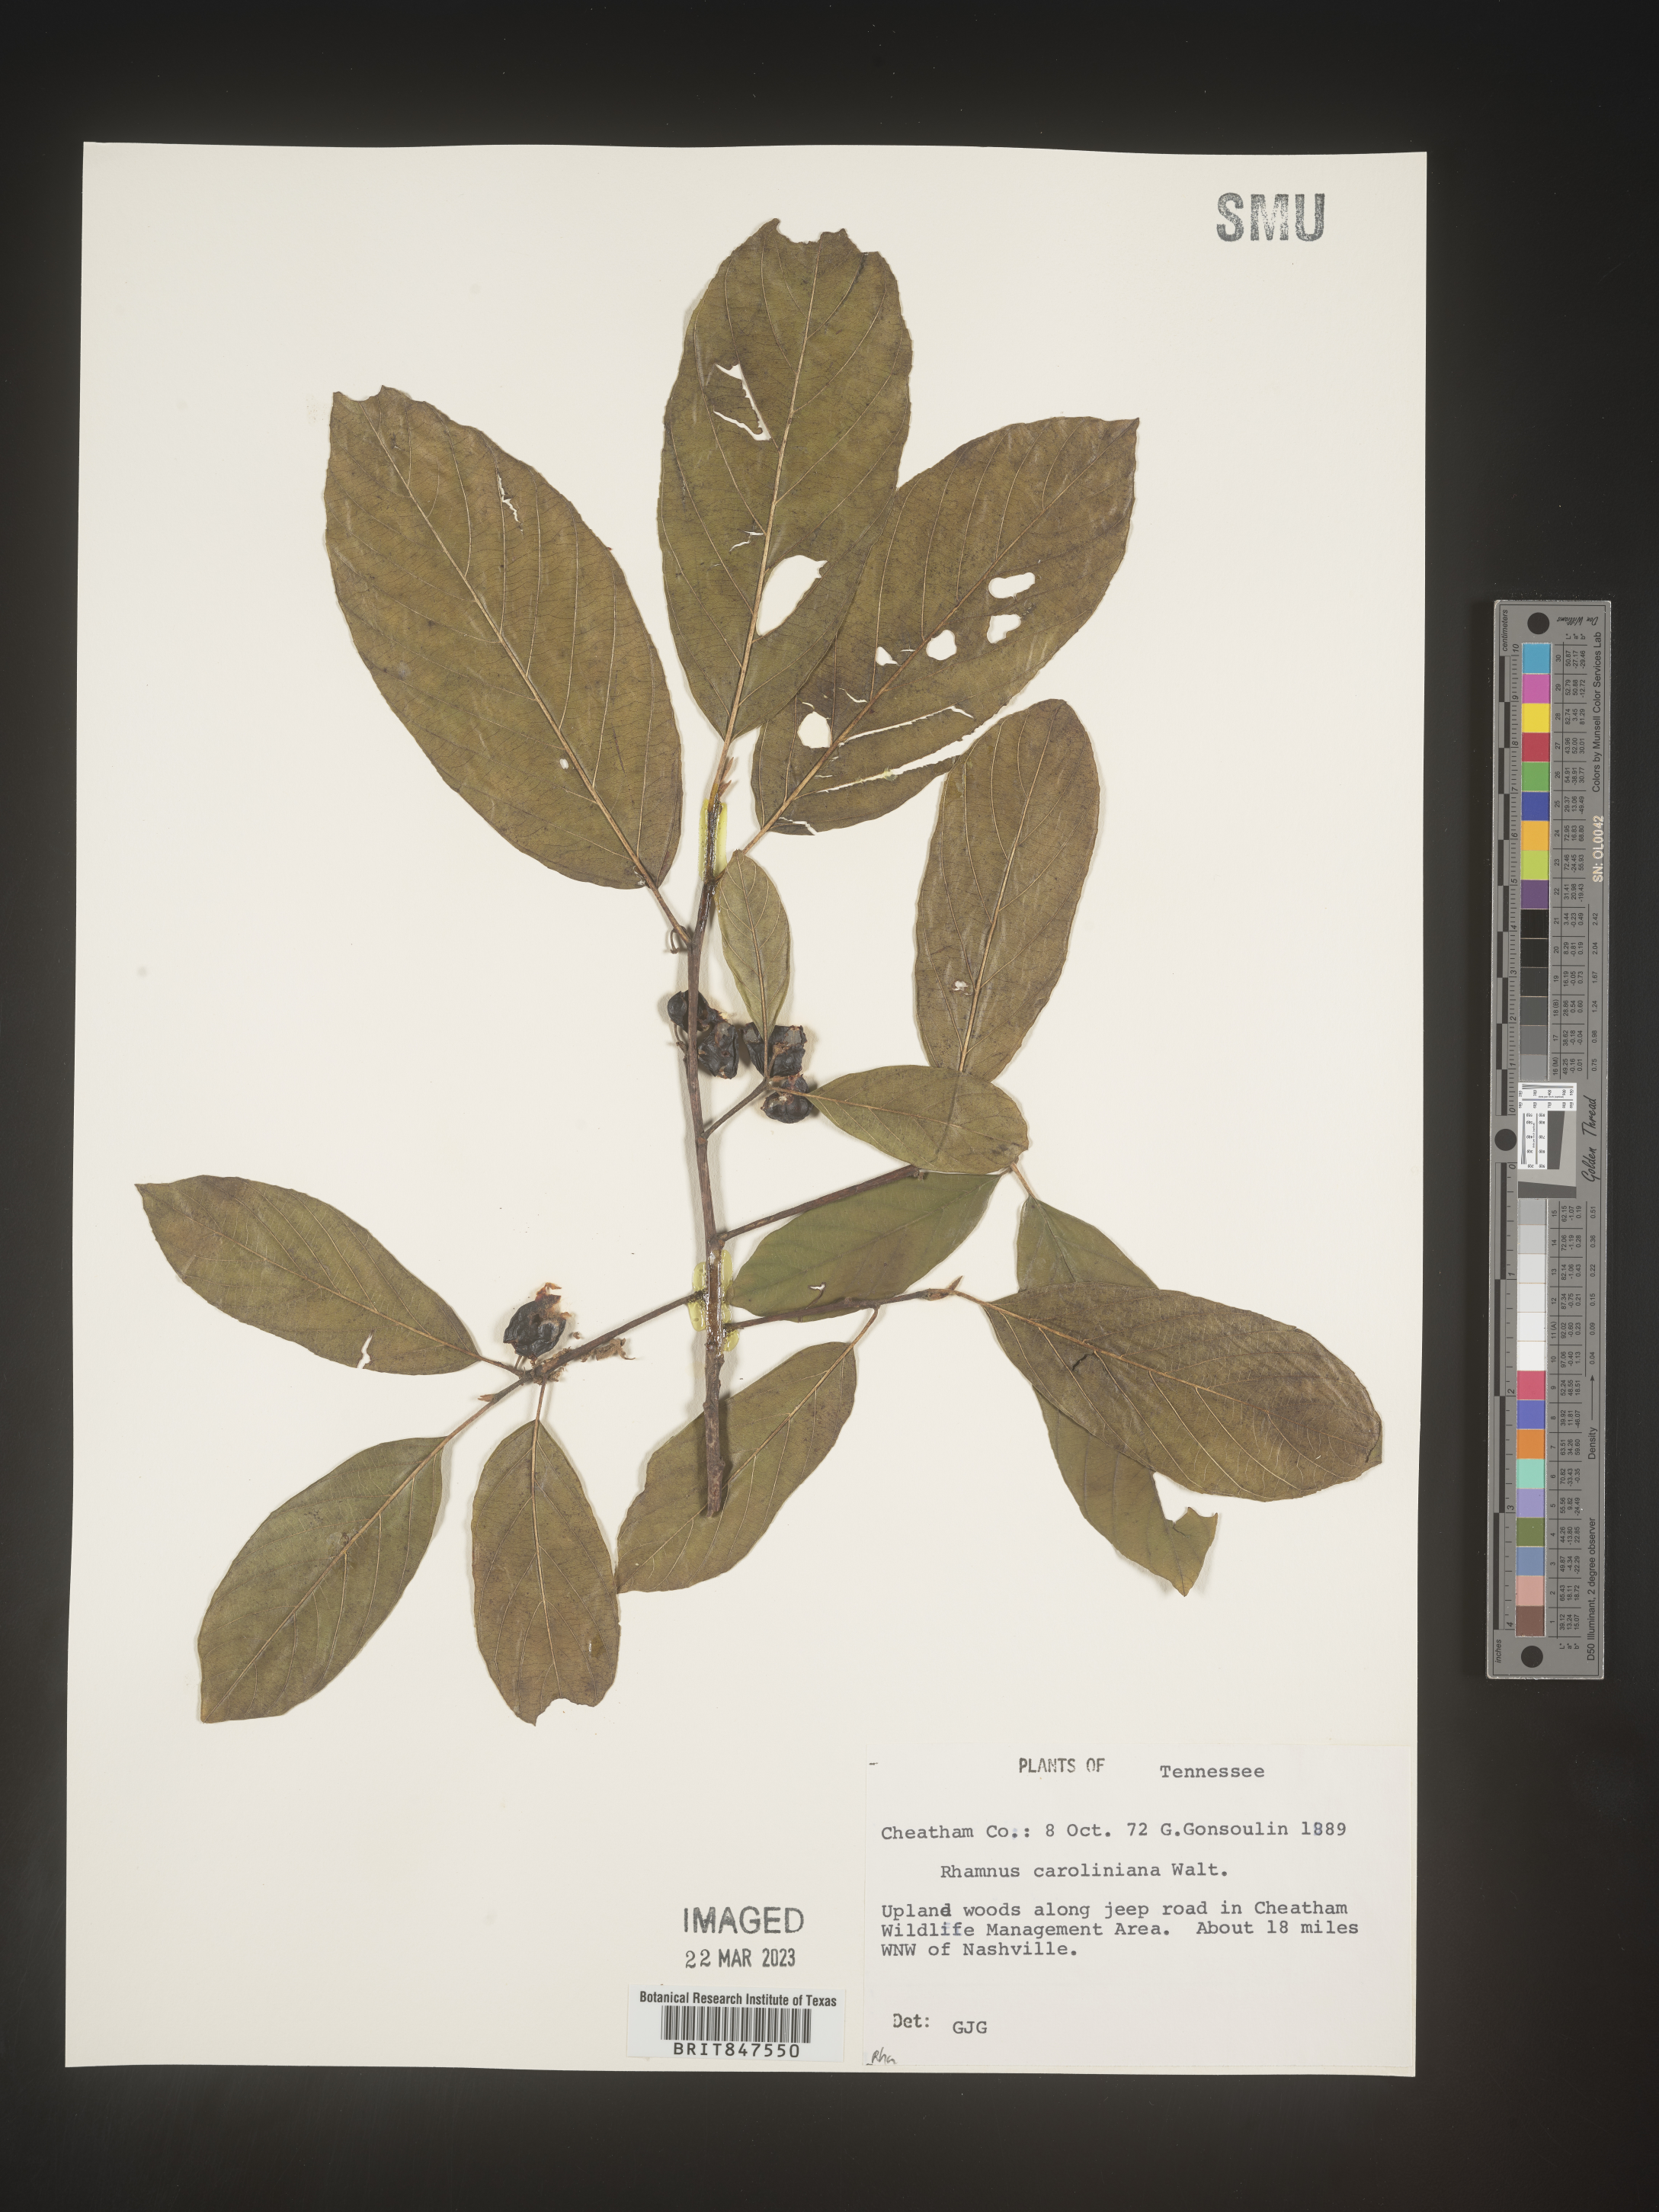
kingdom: Plantae
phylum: Tracheophyta
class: Magnoliopsida
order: Rosales
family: Rhamnaceae
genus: Frangula
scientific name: Frangula caroliniana
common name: Carolina buckthorn
